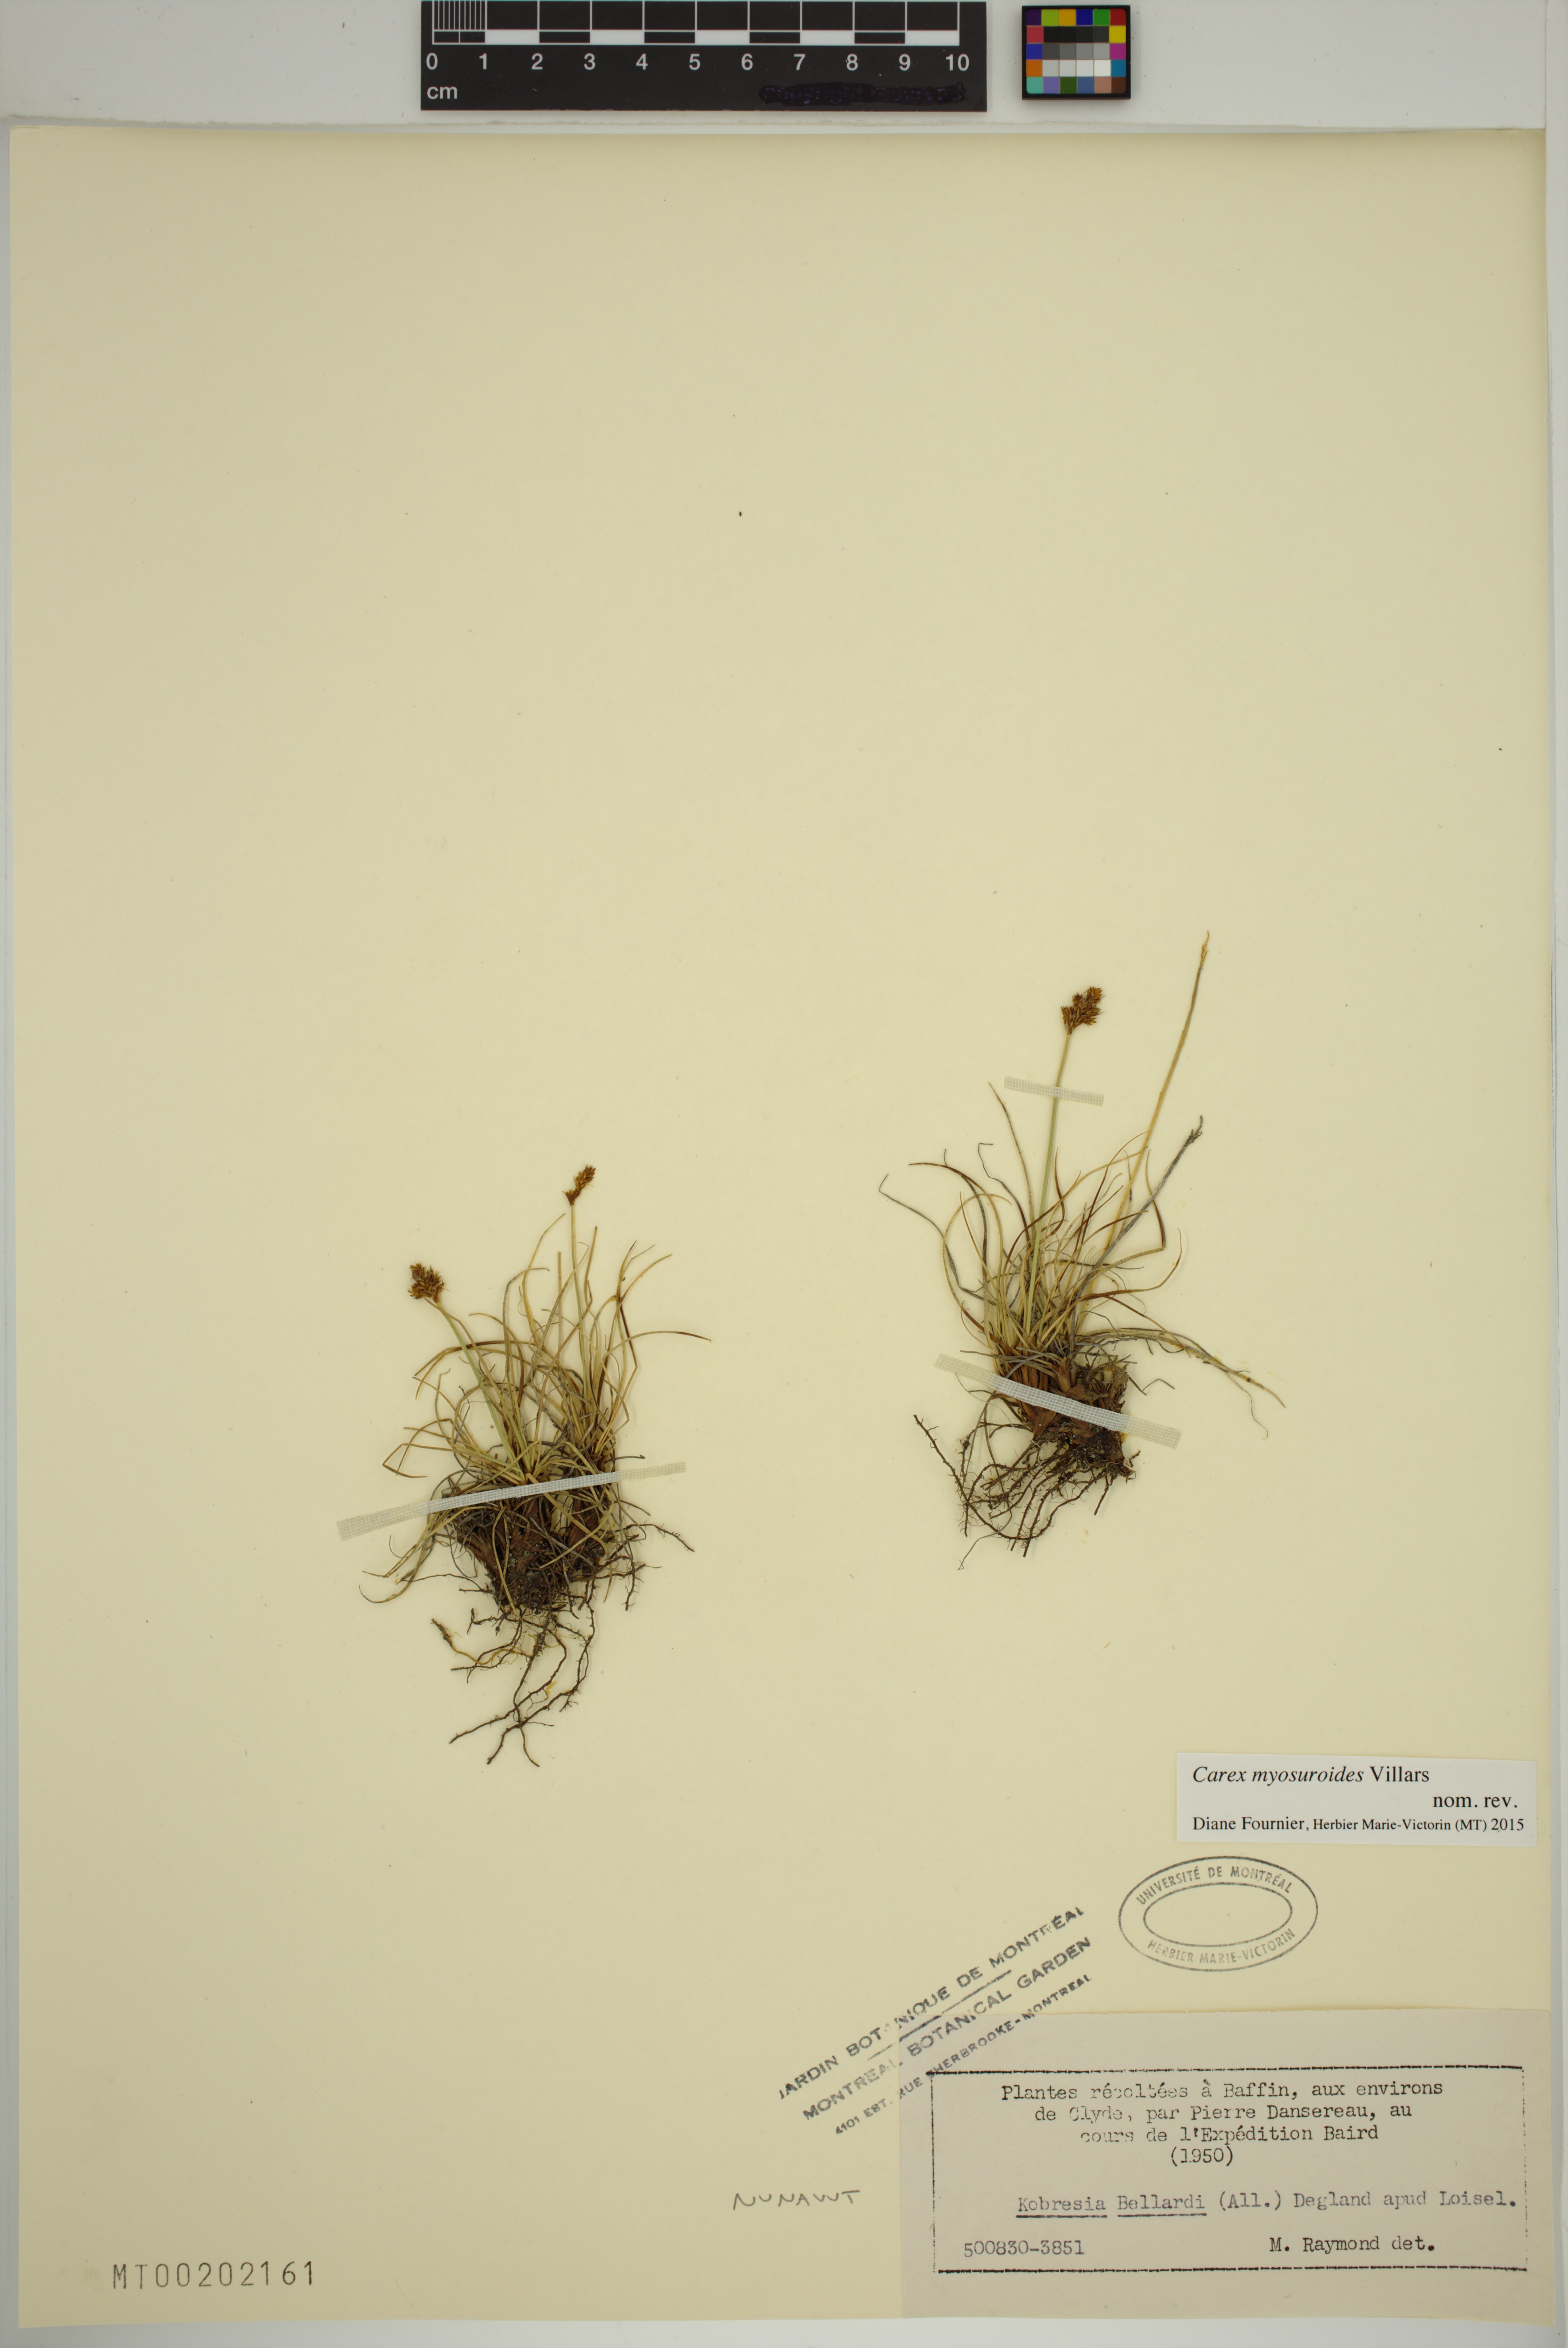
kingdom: Plantae
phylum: Tracheophyta
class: Liliopsida
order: Poales
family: Cyperaceae
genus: Carex
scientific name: Carex simpliciuscula
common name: Simple bog sedge
